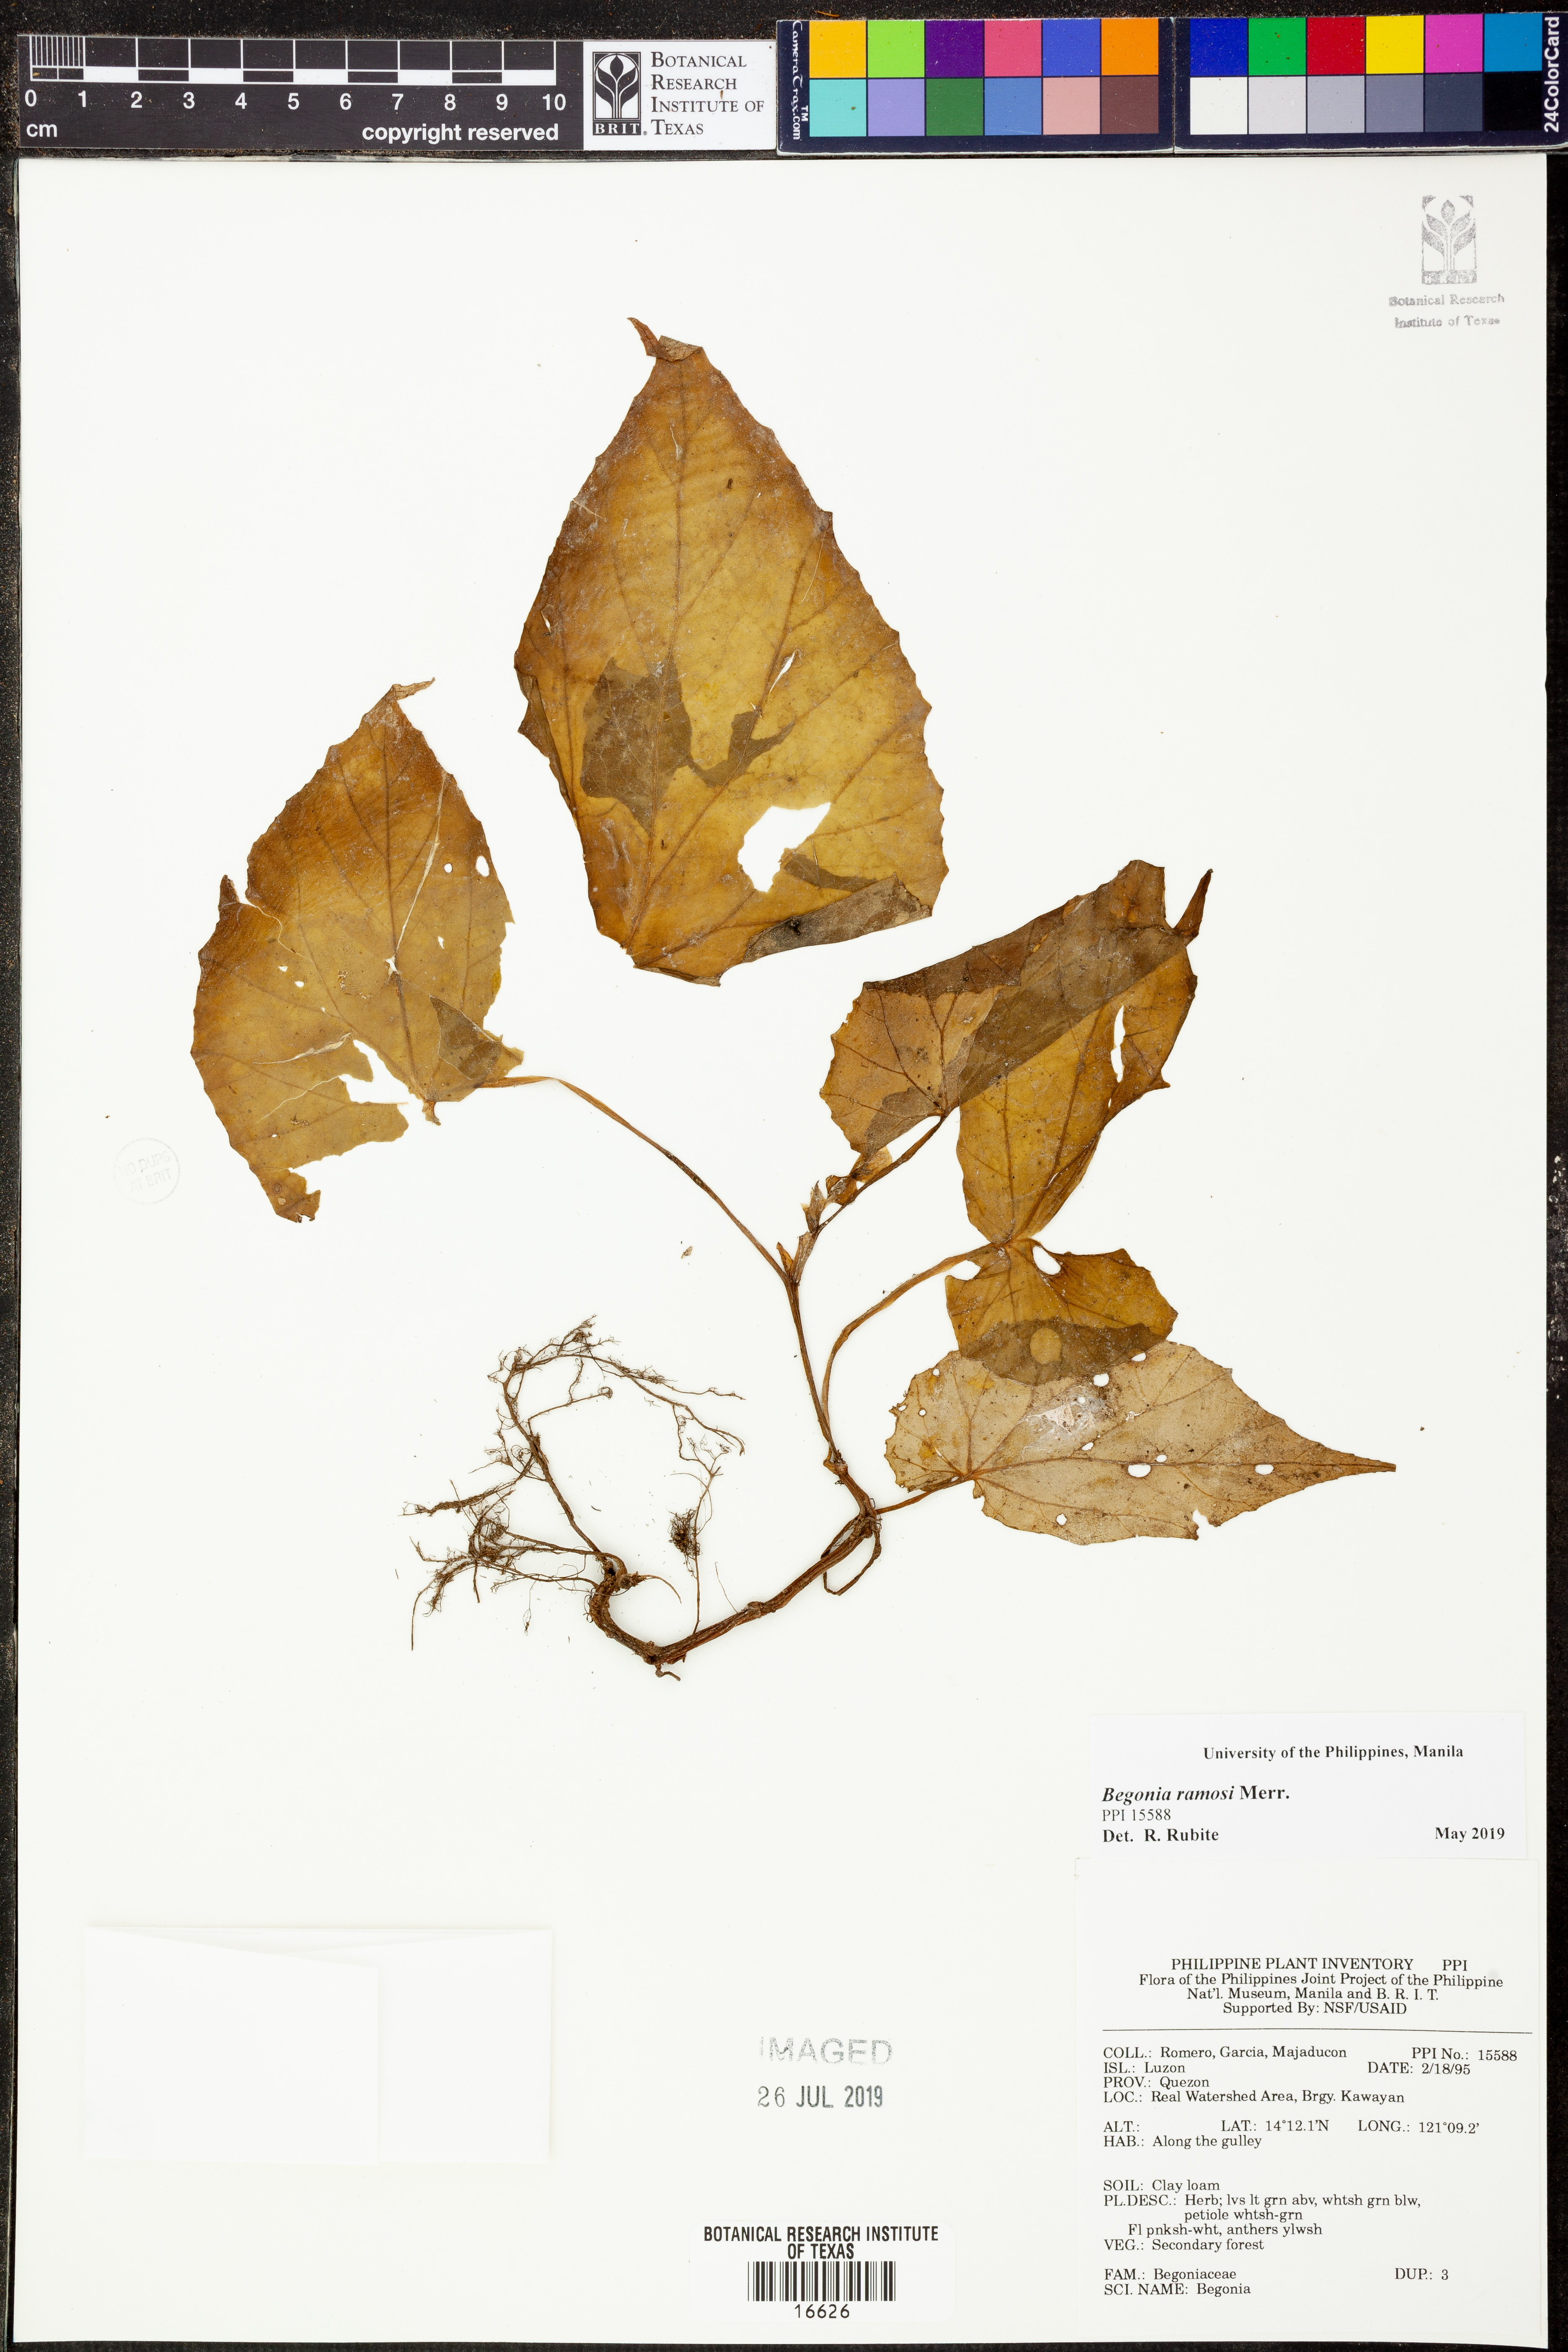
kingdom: Plantae
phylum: Tracheophyta
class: Magnoliopsida
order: Cucurbitales
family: Begoniaceae
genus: Begonia
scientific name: Begonia ramosii
